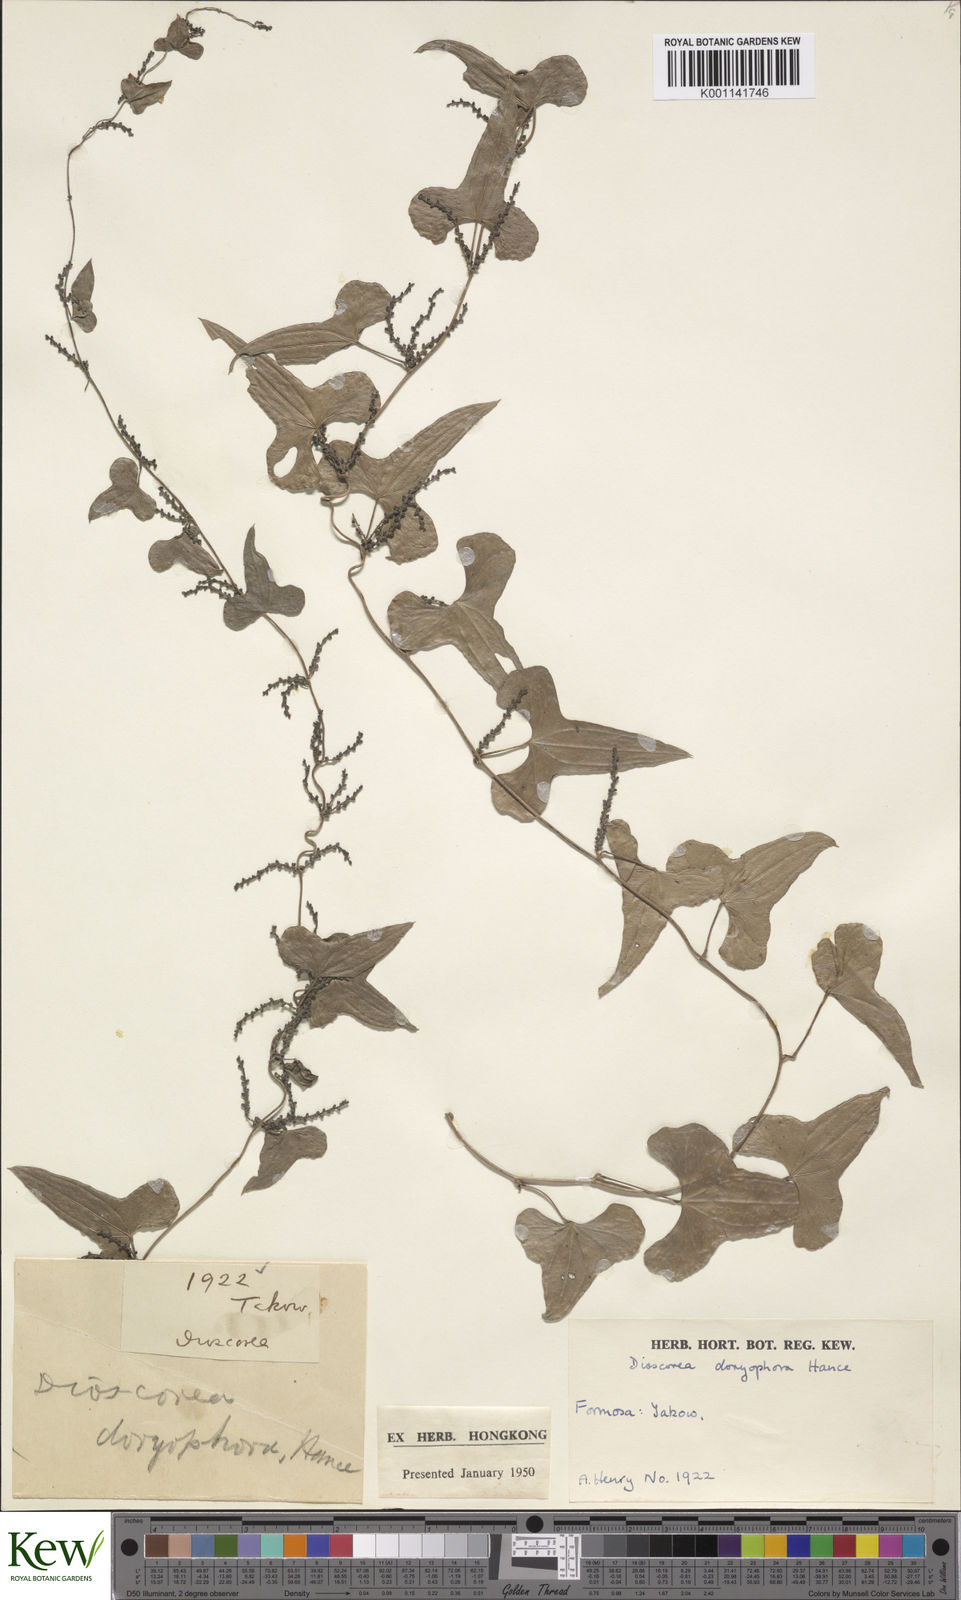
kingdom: Plantae
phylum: Tracheophyta
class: Liliopsida
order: Dioscoreales
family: Dioscoreaceae
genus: Dioscorea
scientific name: Dioscorea polystachya
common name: Chinese yam
